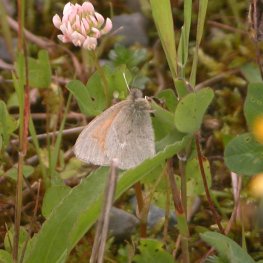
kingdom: Animalia
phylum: Arthropoda
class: Insecta
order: Lepidoptera
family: Nymphalidae
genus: Coenonympha
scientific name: Coenonympha tullia
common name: Large Heath
